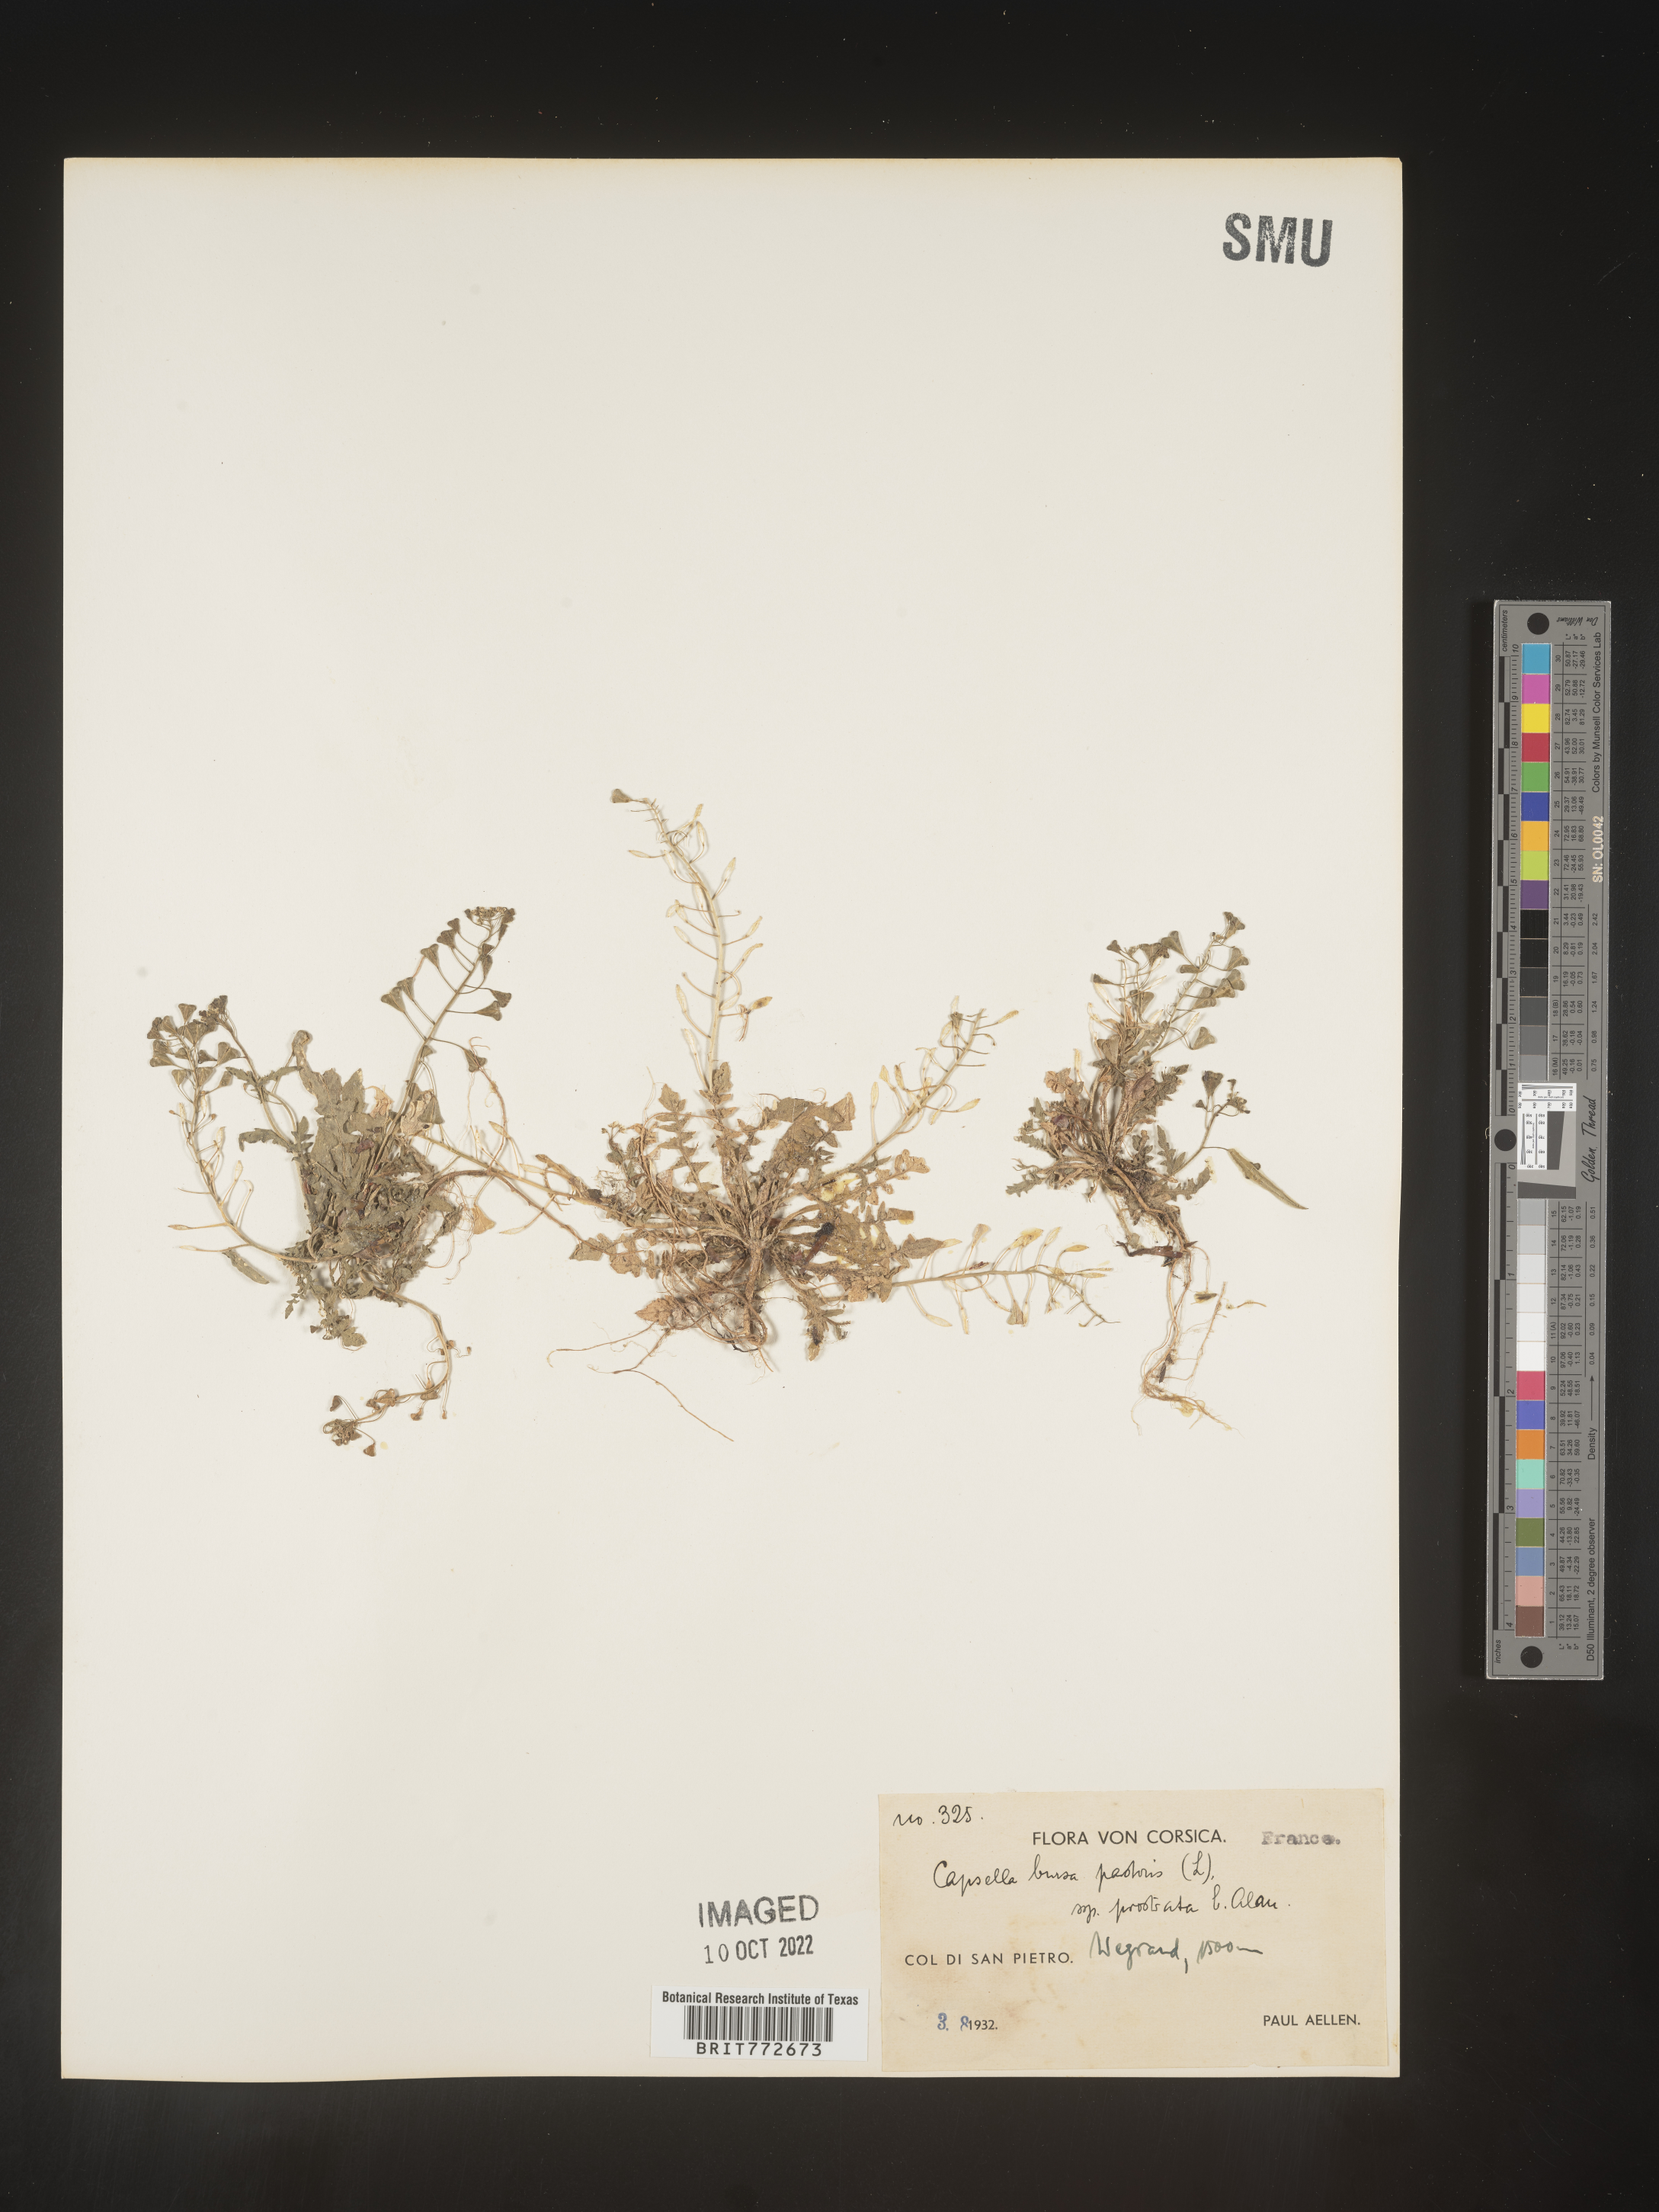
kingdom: Plantae
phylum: Tracheophyta
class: Magnoliopsida
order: Brassicales
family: Brassicaceae
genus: Capsella
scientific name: Capsella
